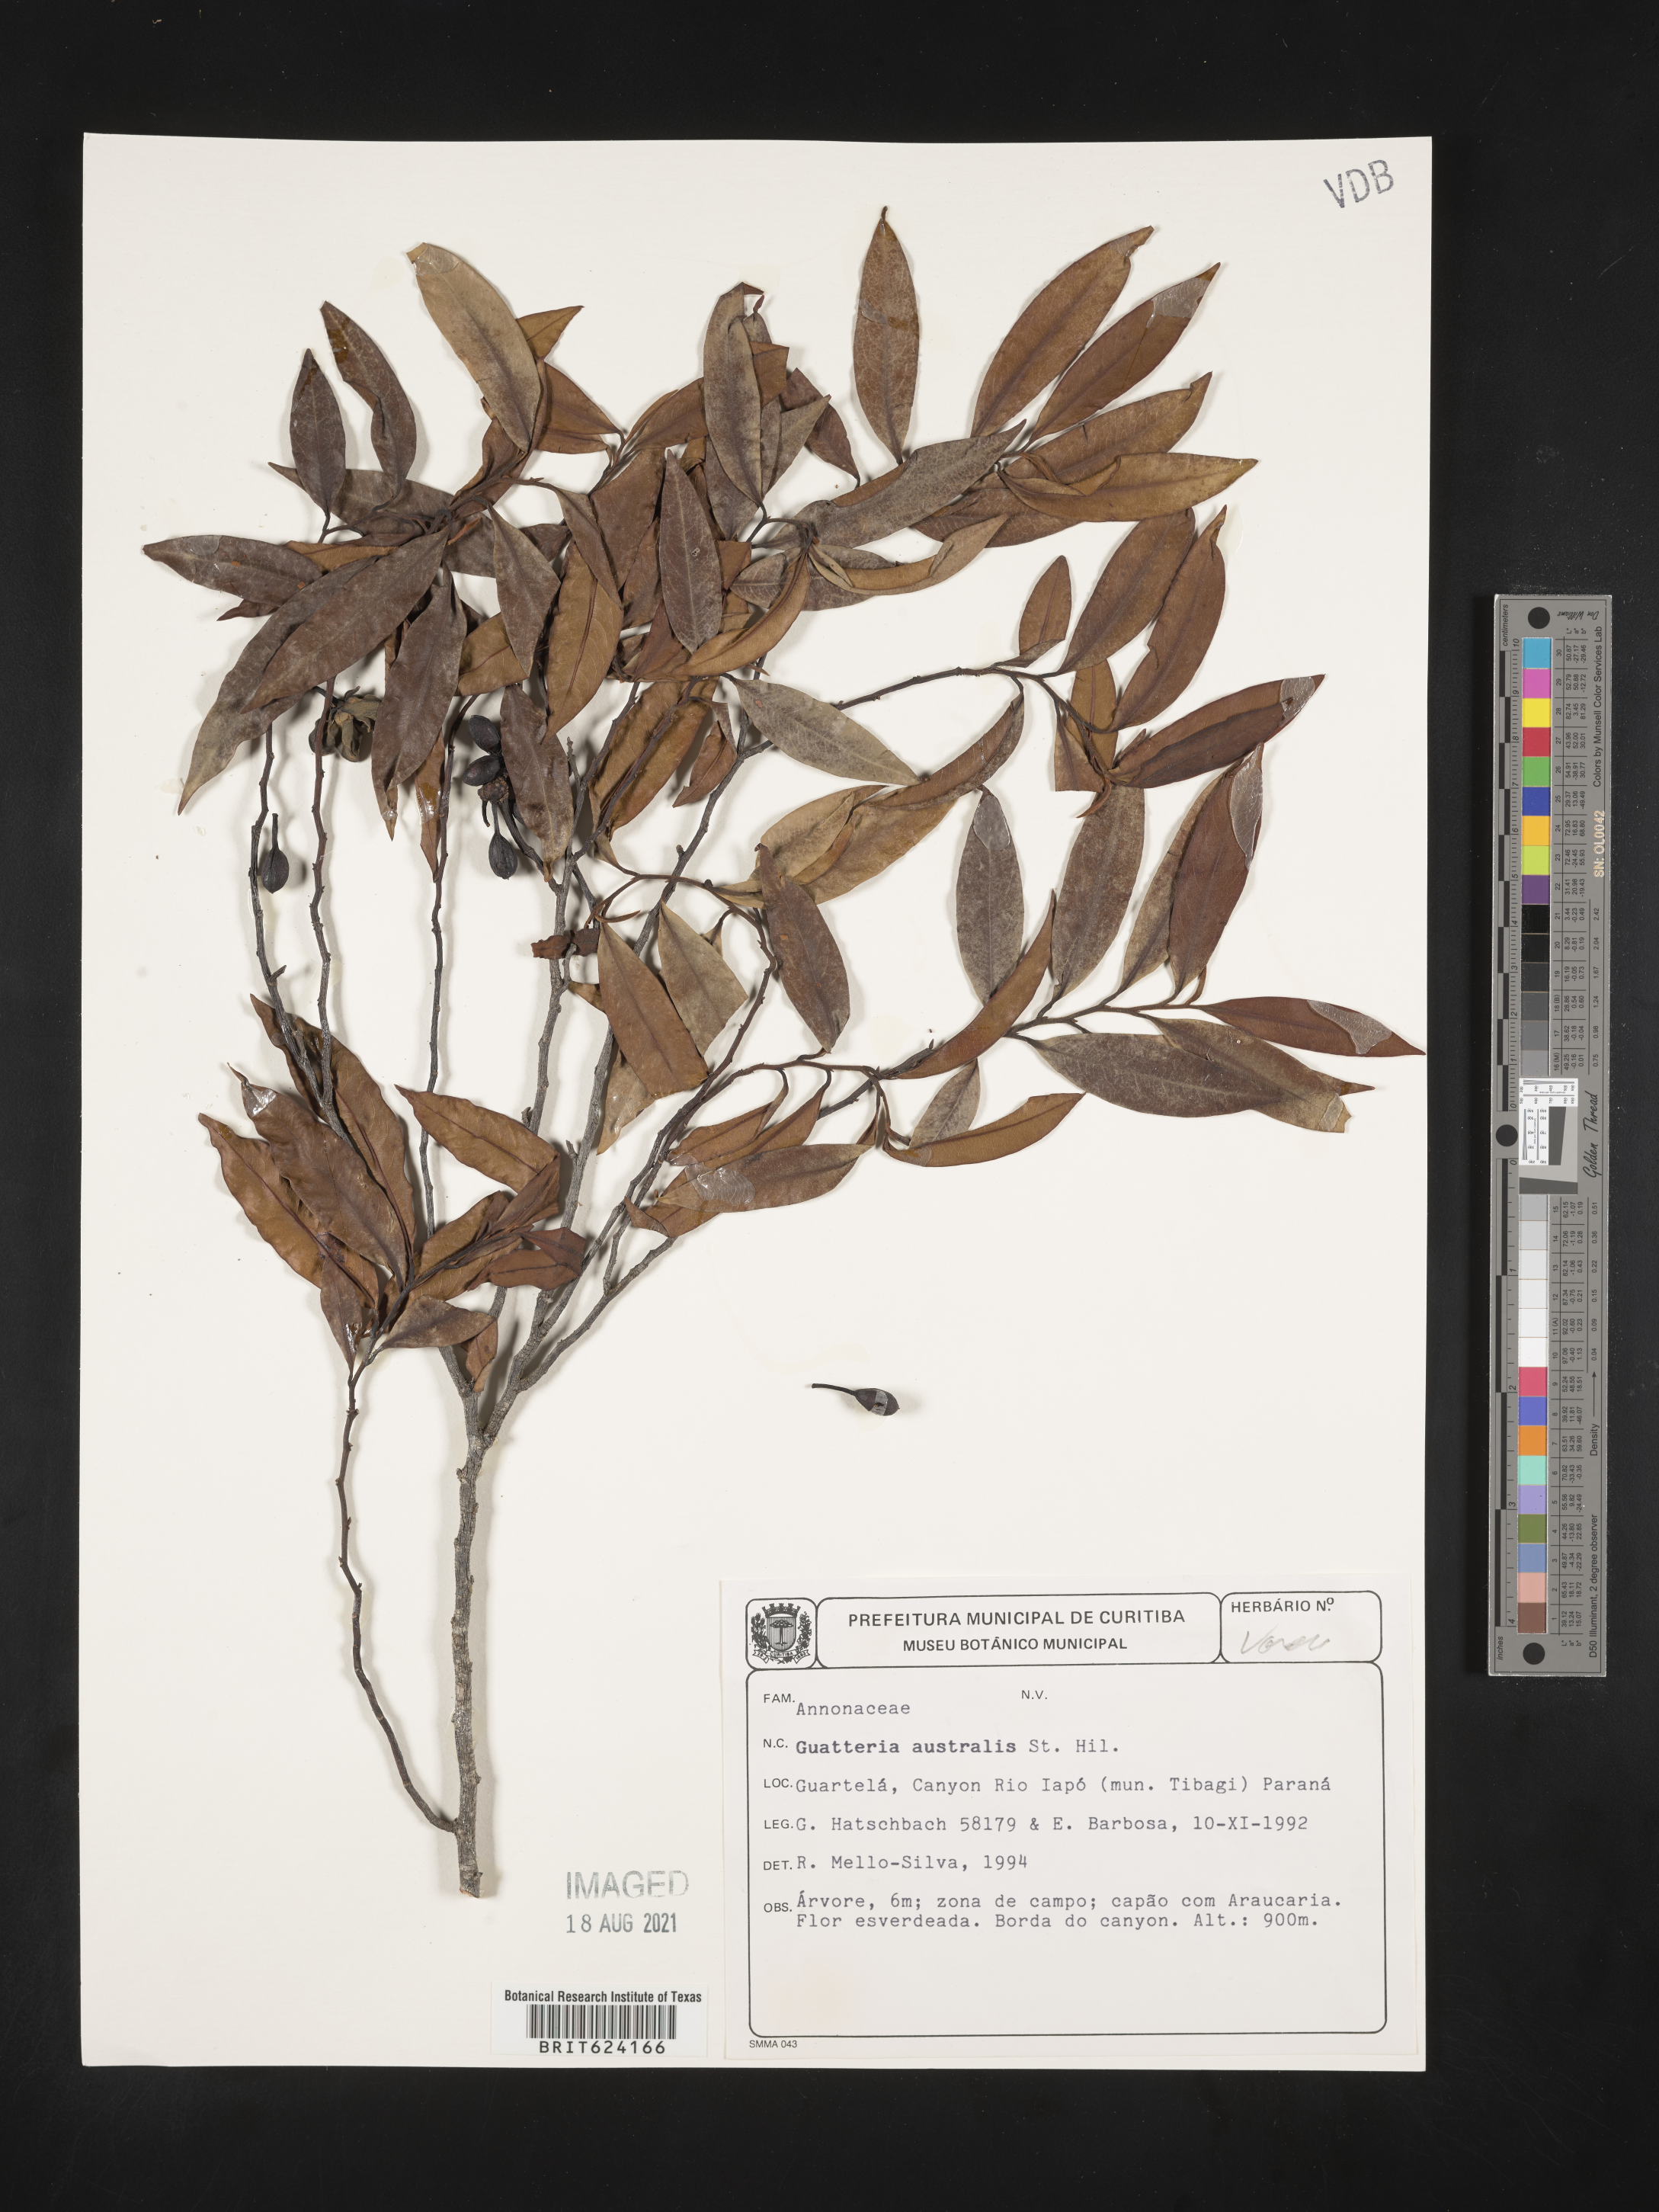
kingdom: Plantae
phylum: Tracheophyta
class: Magnoliopsida
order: Magnoliales
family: Annonaceae
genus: Guatteria
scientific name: Guatteria australis
